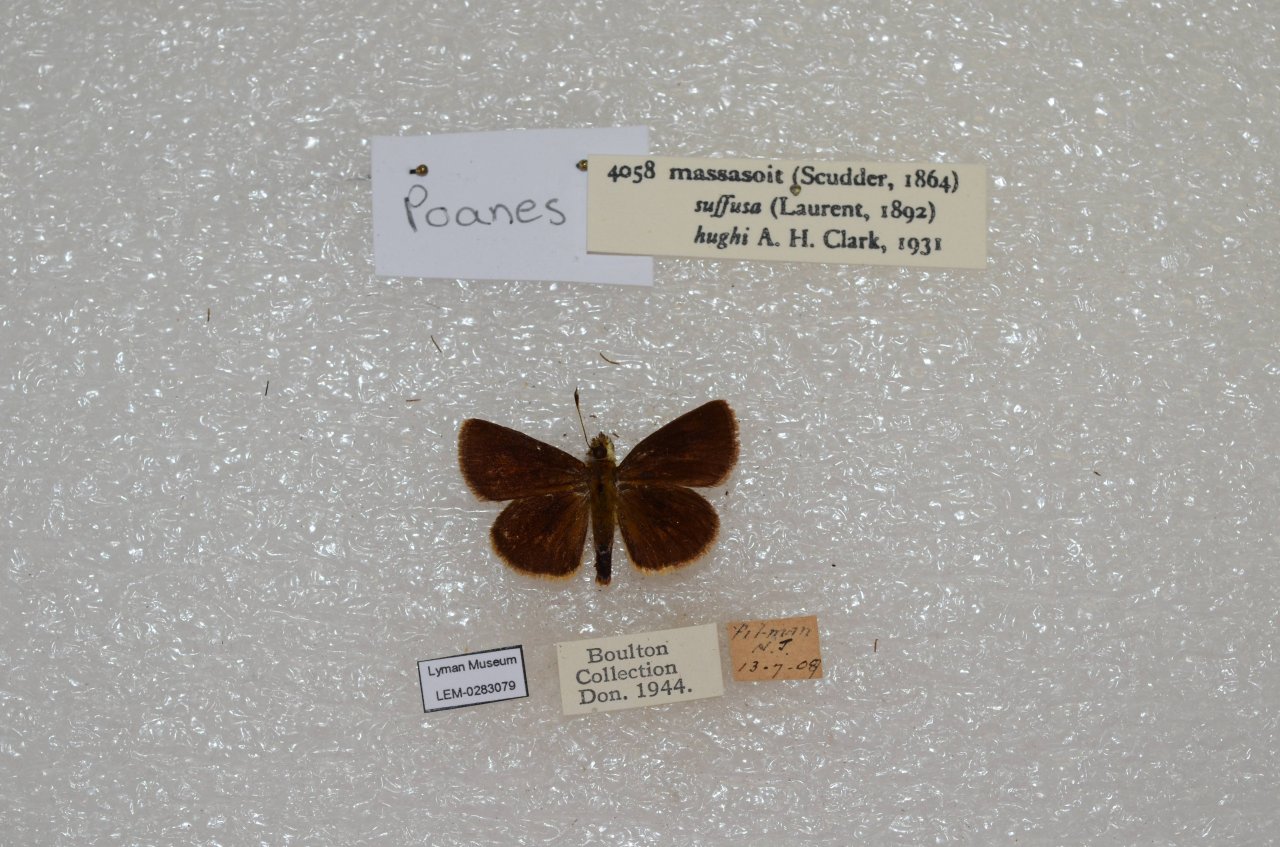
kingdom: Animalia
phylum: Arthropoda
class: Insecta
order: Lepidoptera
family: Hesperiidae
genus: Poanes
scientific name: Poanes massasoit
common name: Mulberry Wing
